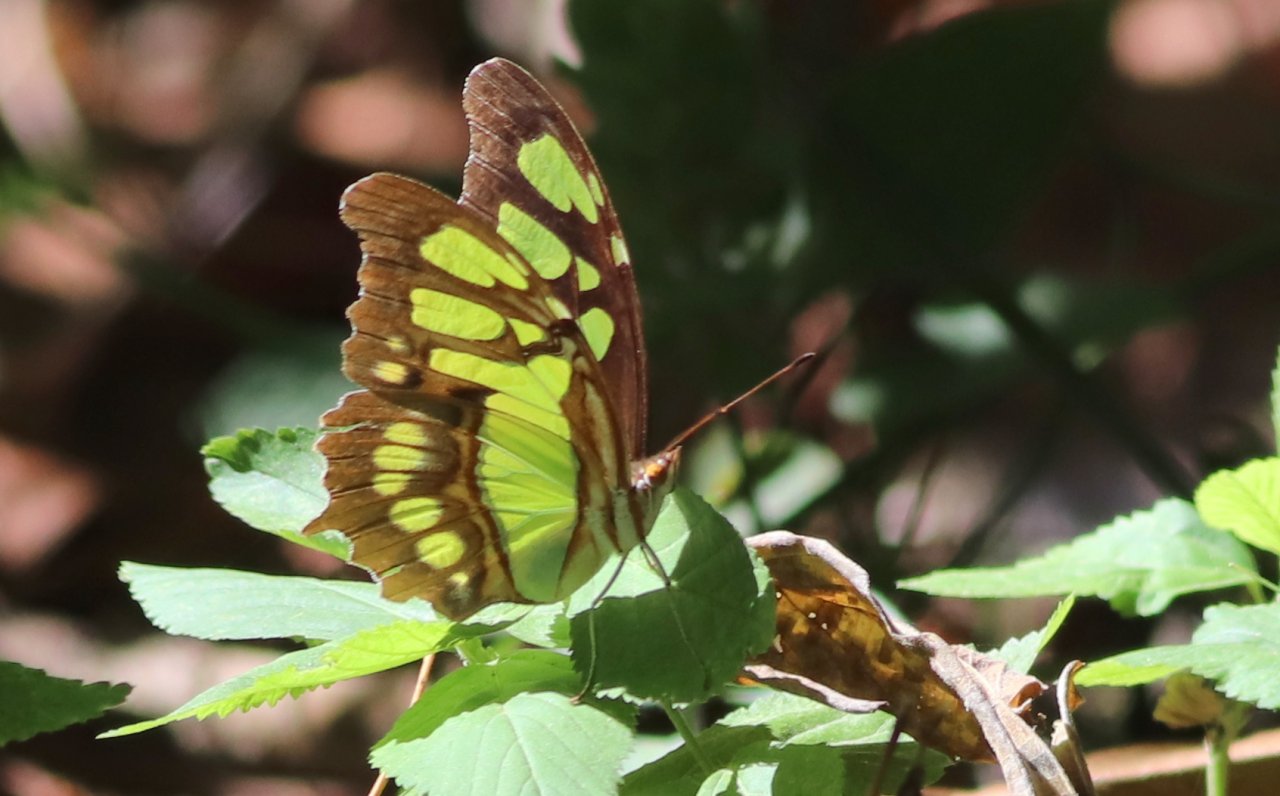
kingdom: Animalia
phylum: Arthropoda
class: Insecta
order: Lepidoptera
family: Nymphalidae
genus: Siproeta
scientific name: Siproeta stelenes
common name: Malachite
